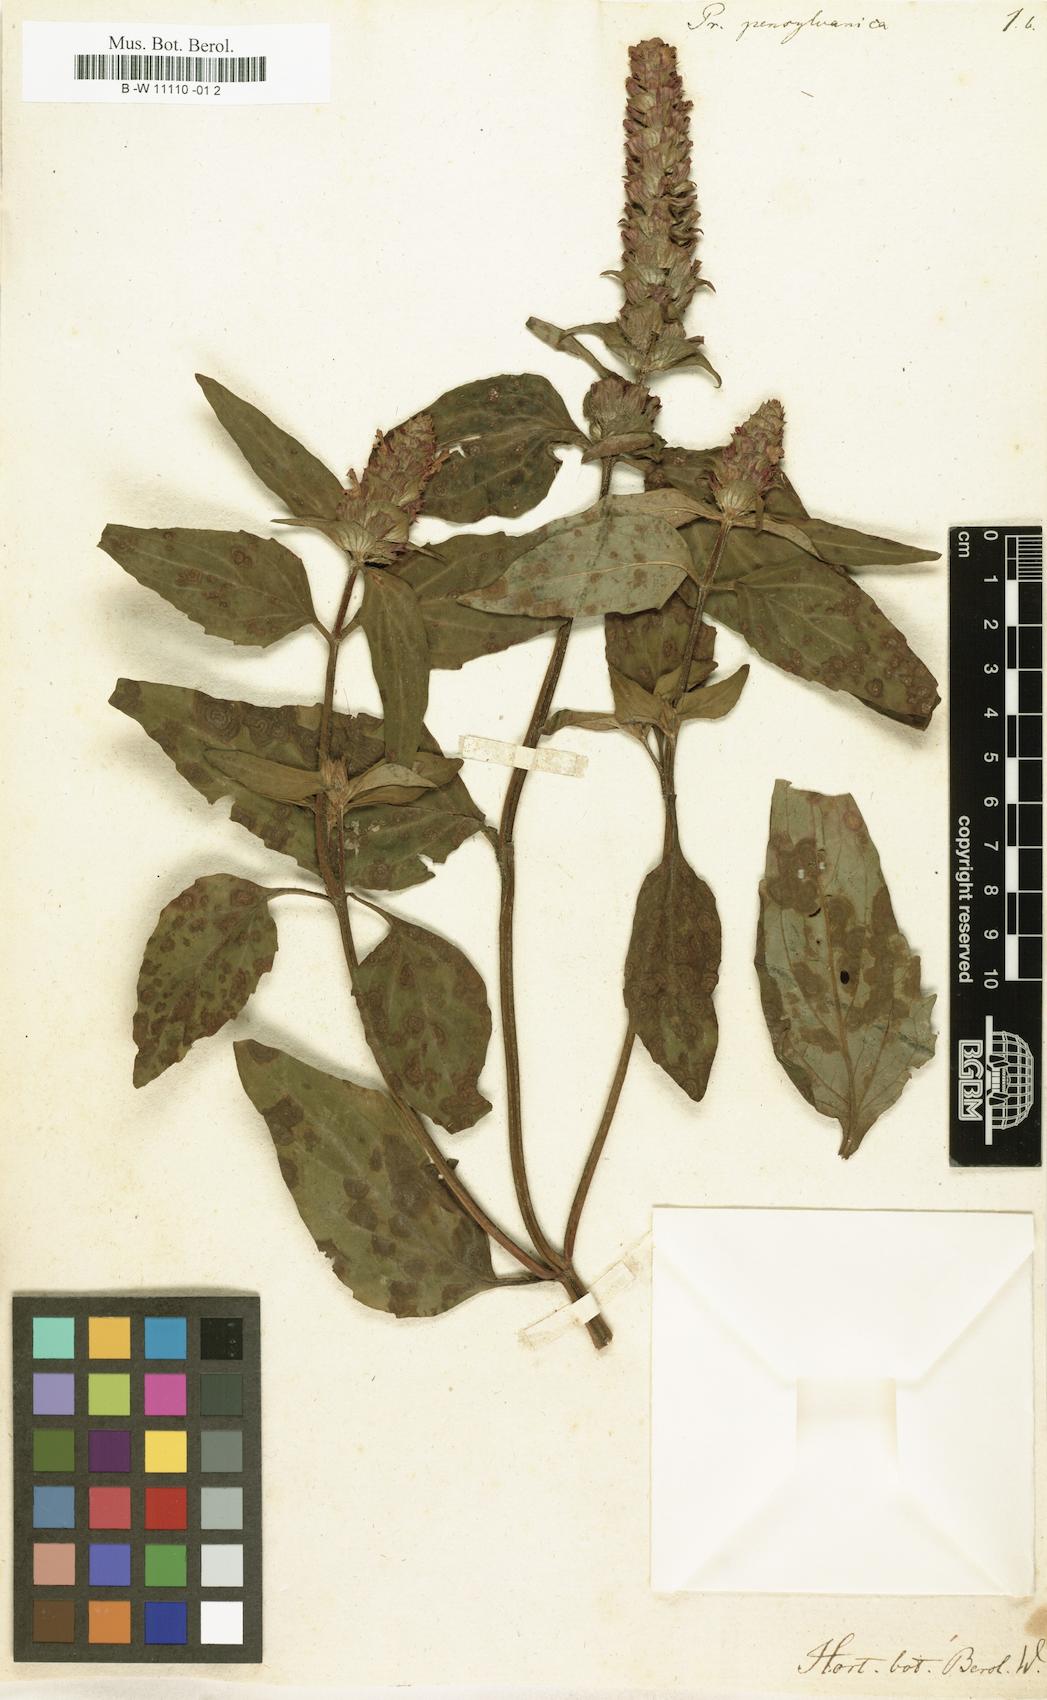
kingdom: Plantae
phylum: Tracheophyta
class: Magnoliopsida
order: Lamiales
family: Lamiaceae
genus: Prunella
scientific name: Prunella vulgaris
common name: Heal-all
